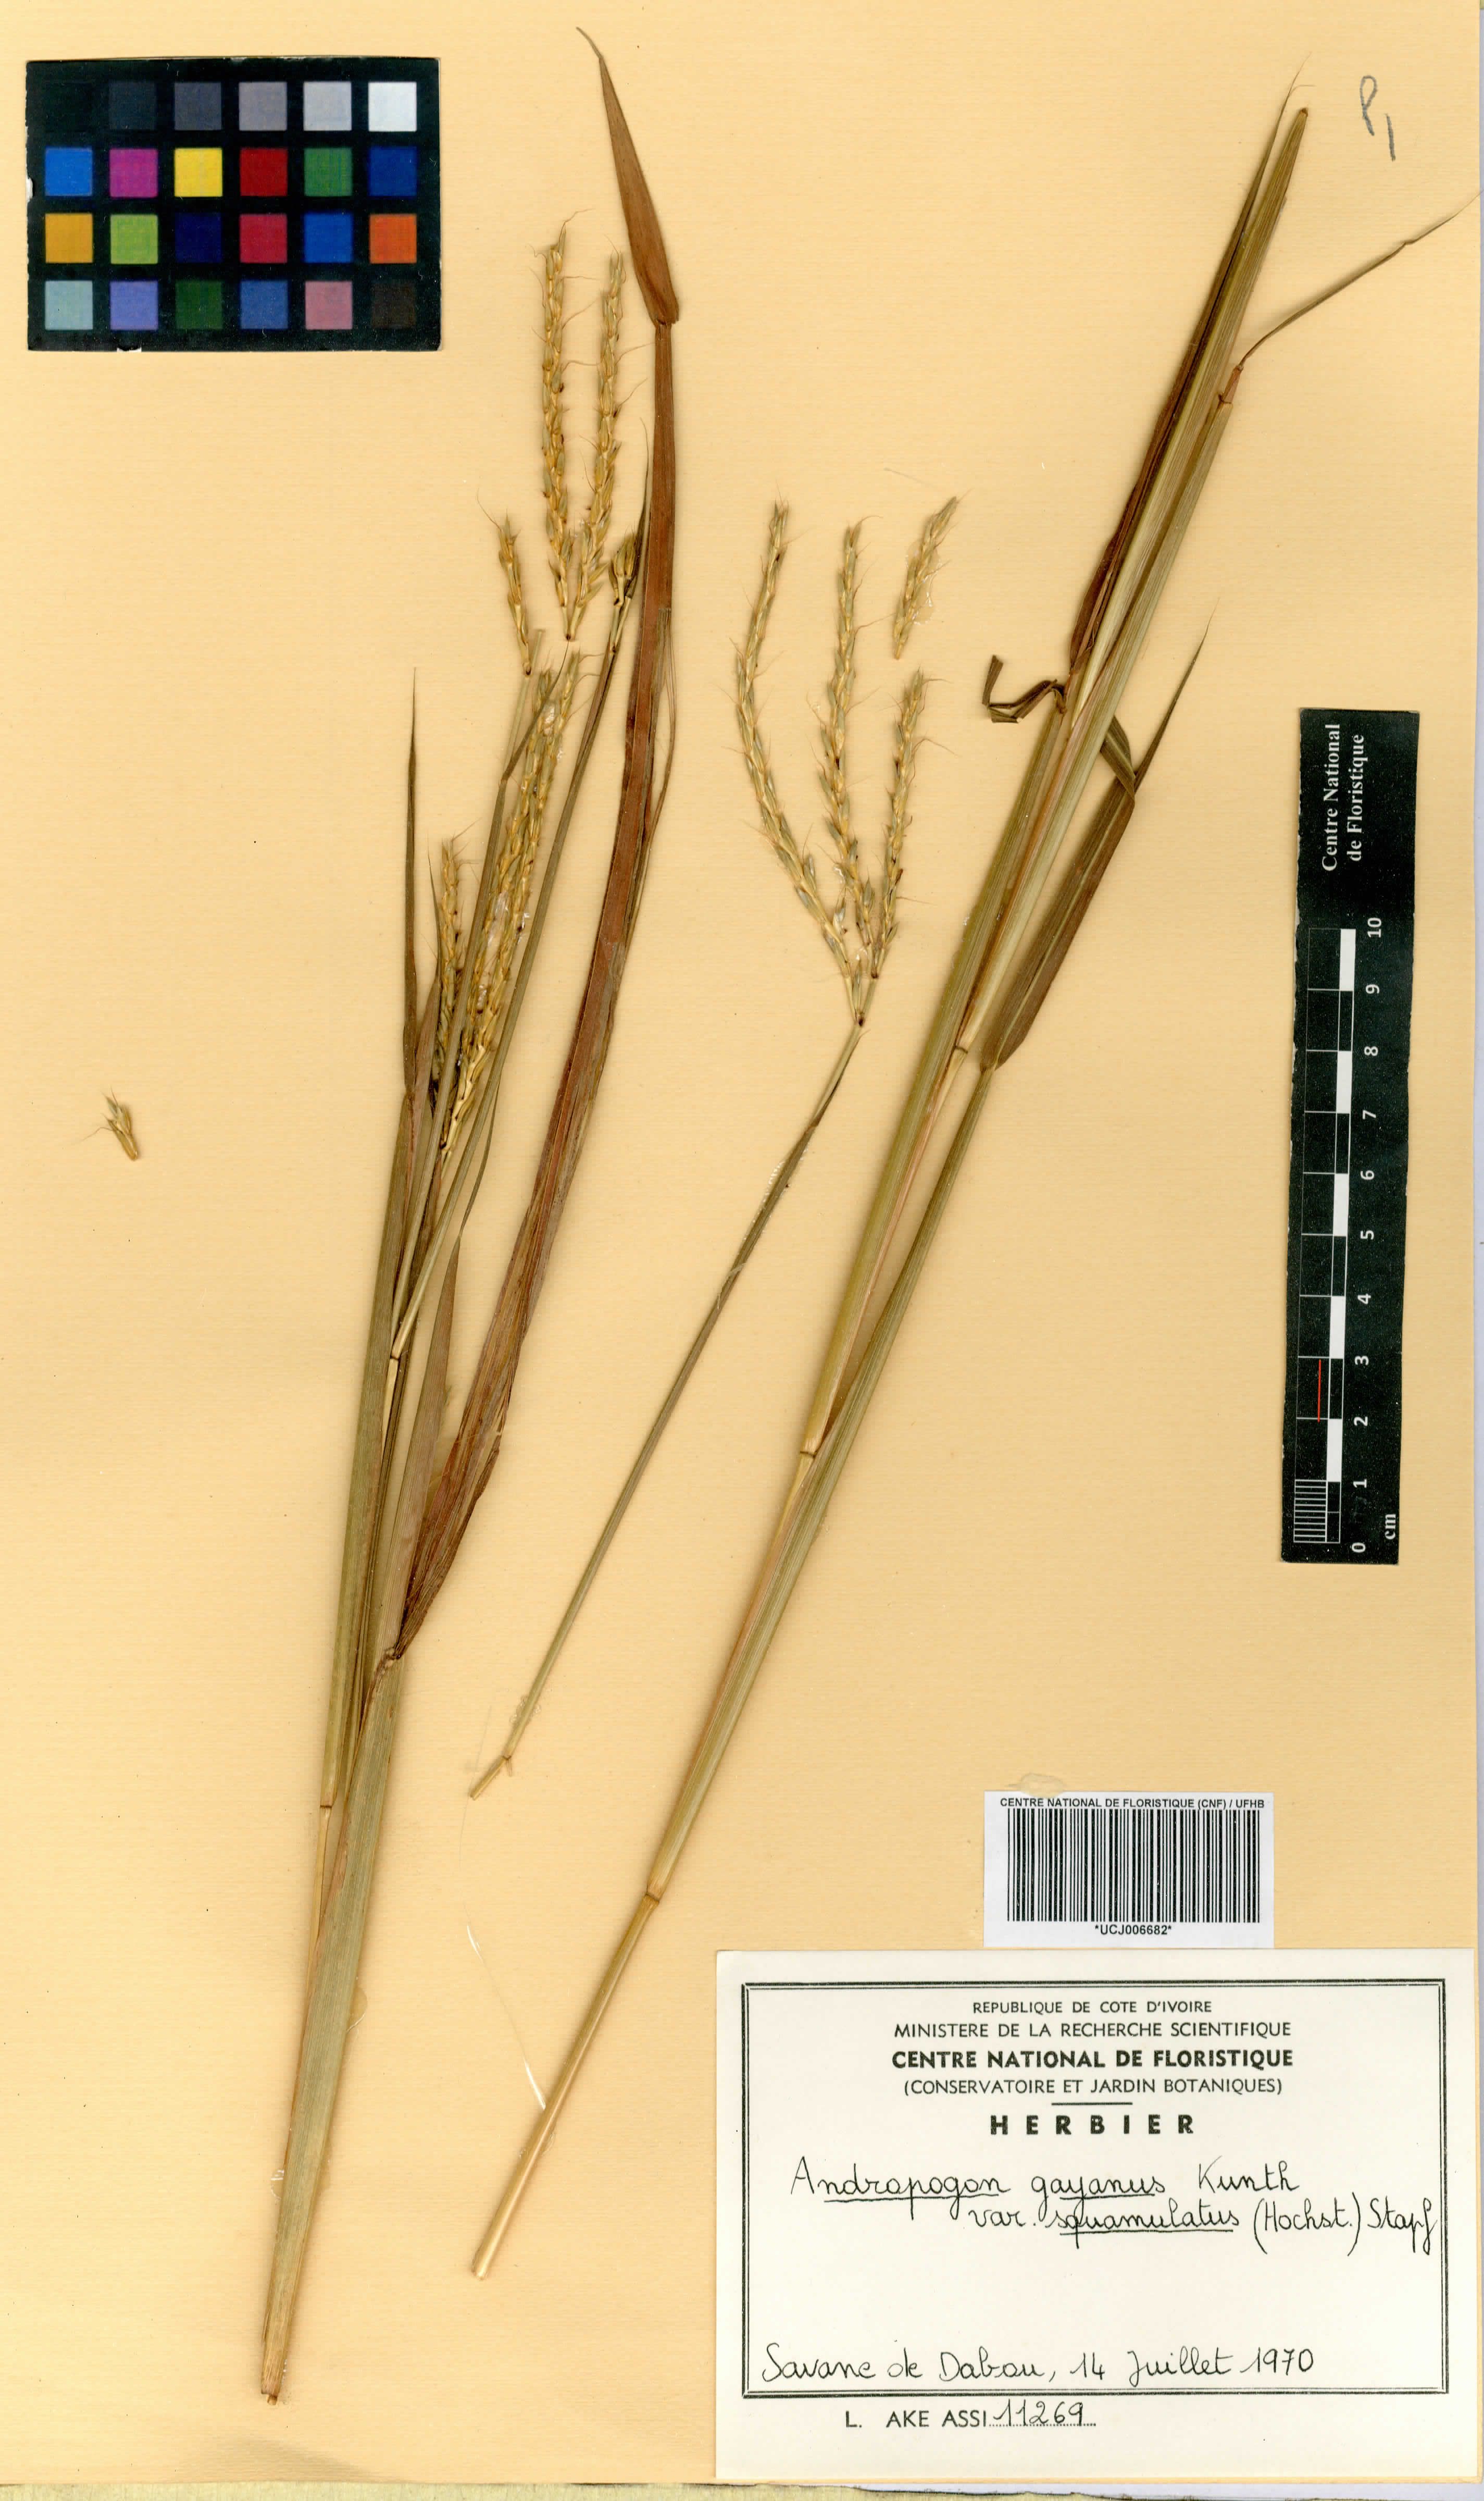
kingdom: Plantae
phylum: Tracheophyta
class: Liliopsida
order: Poales
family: Poaceae
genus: Andropogon
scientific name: Andropogon gayanus
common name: Tambuki grass
